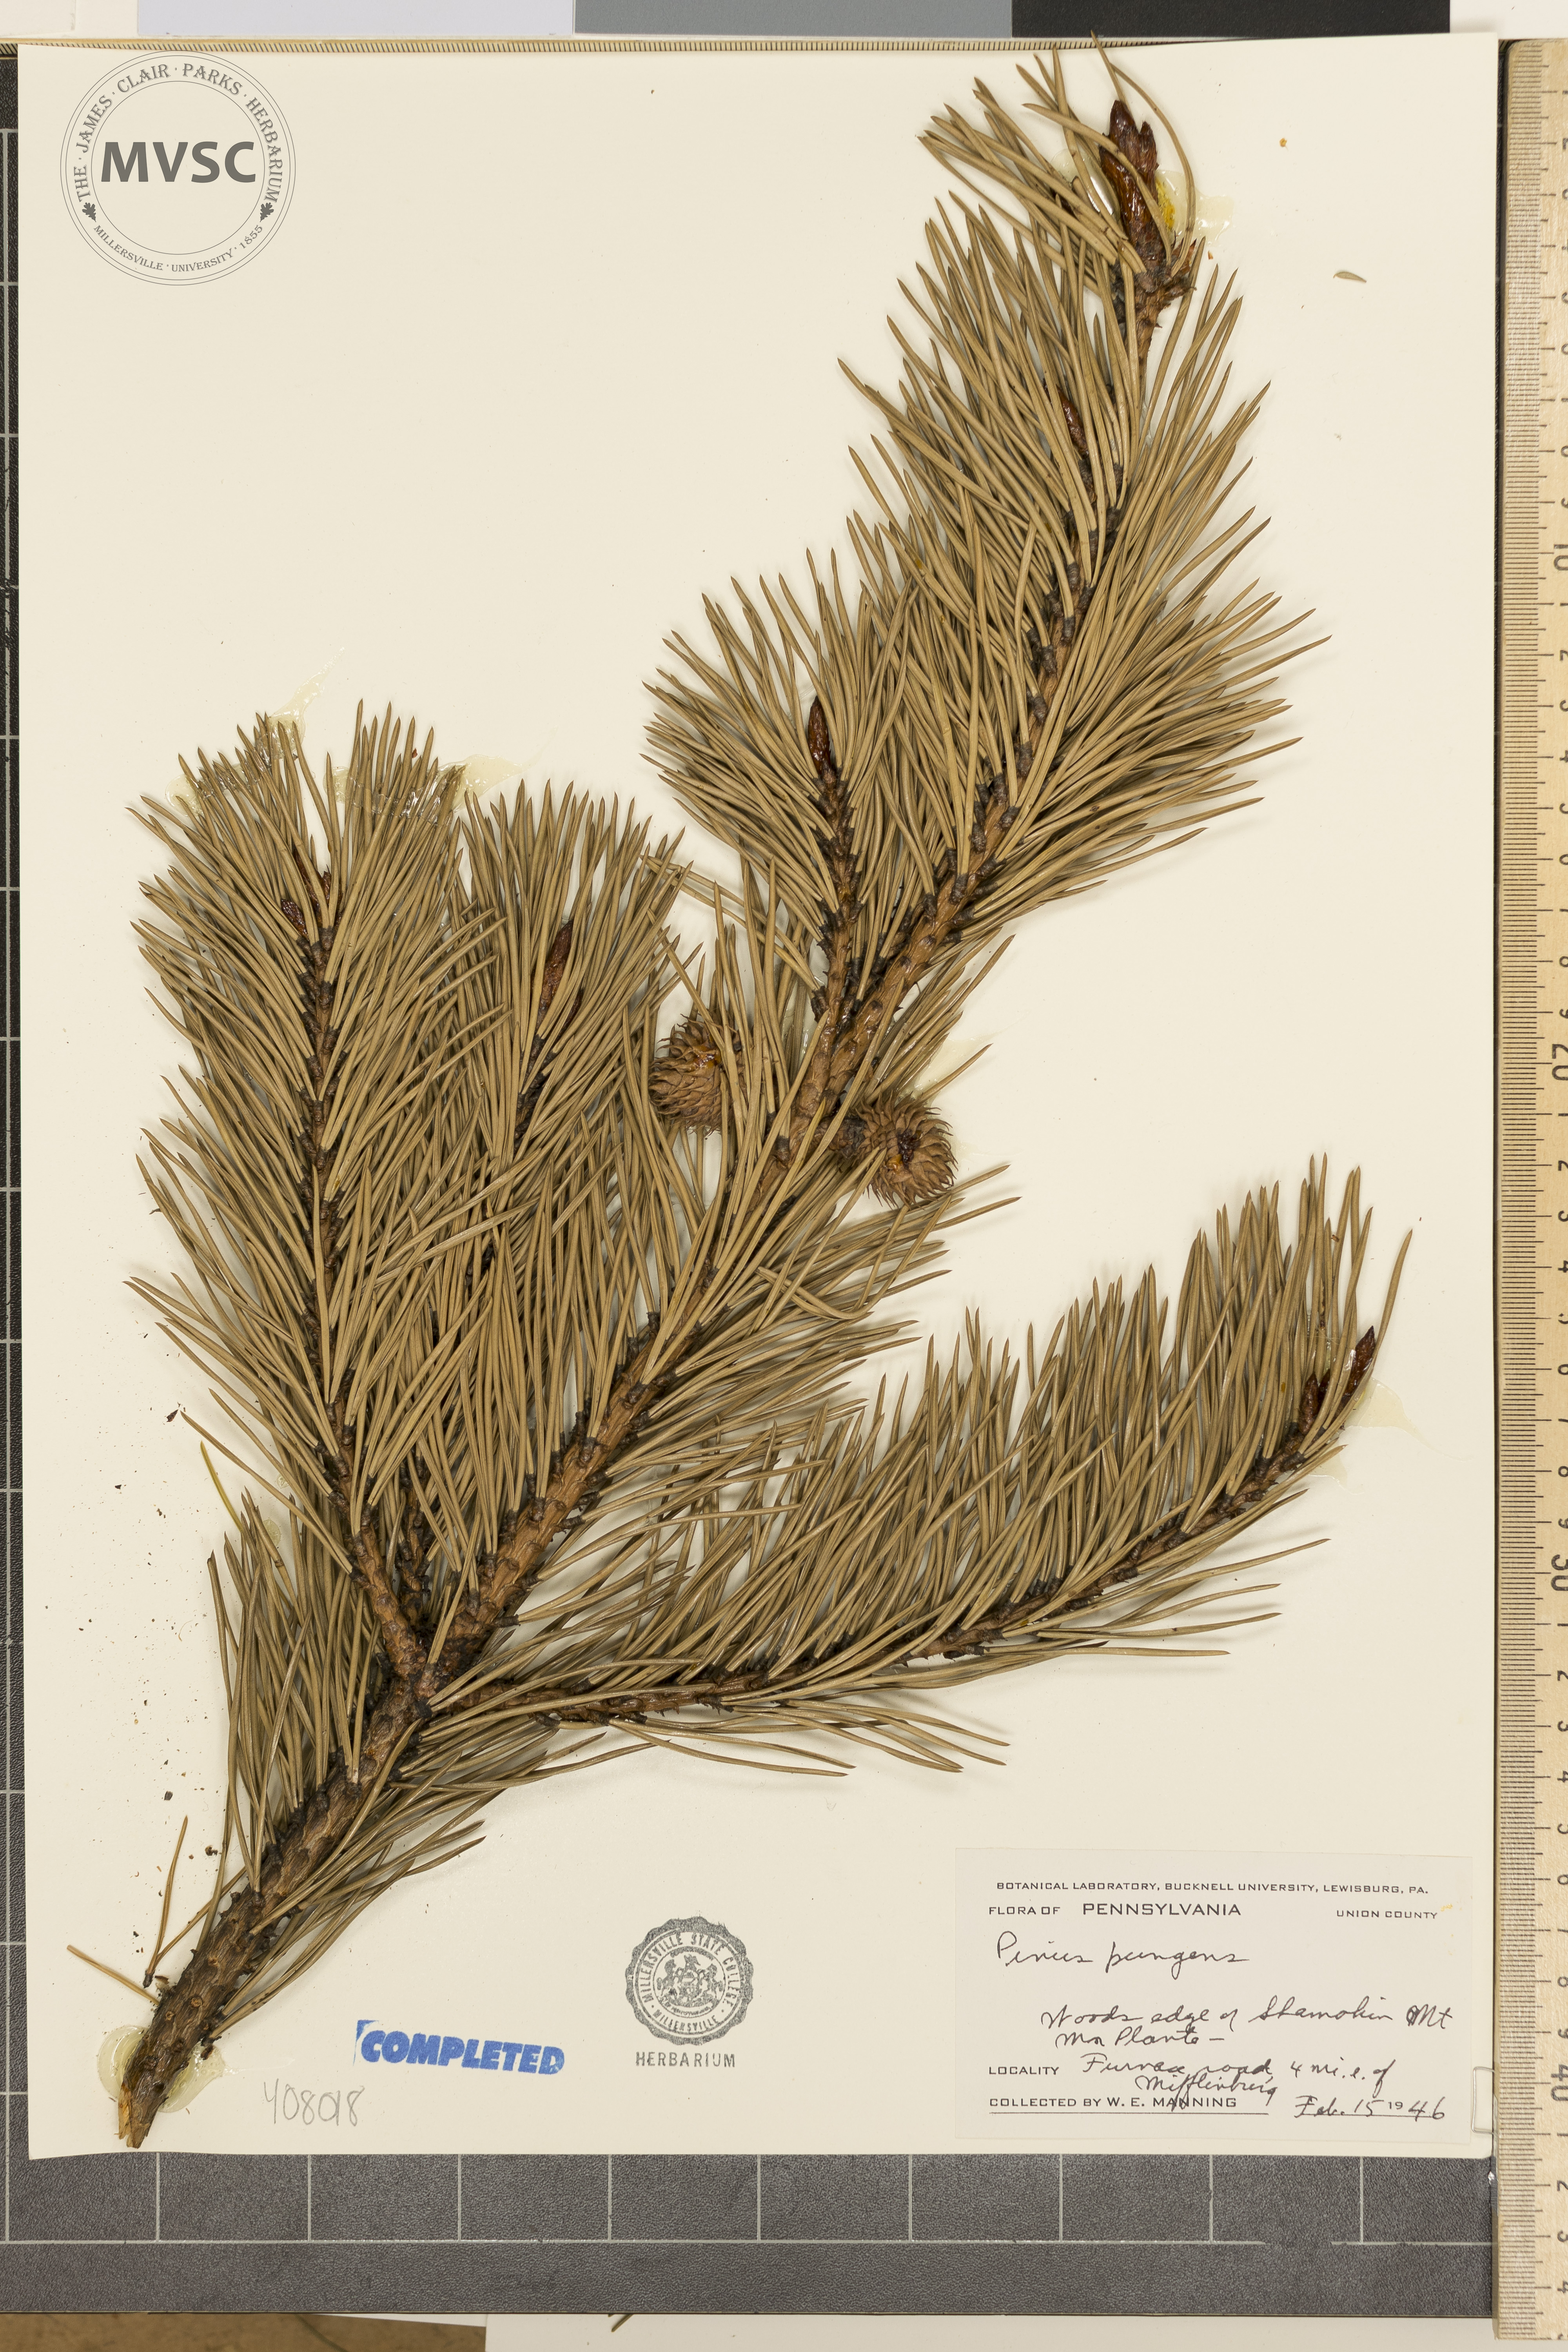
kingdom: Plantae
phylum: Tracheophyta
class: Pinopsida
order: Pinales
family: Pinaceae
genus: Pinus
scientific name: Pinus pungens
